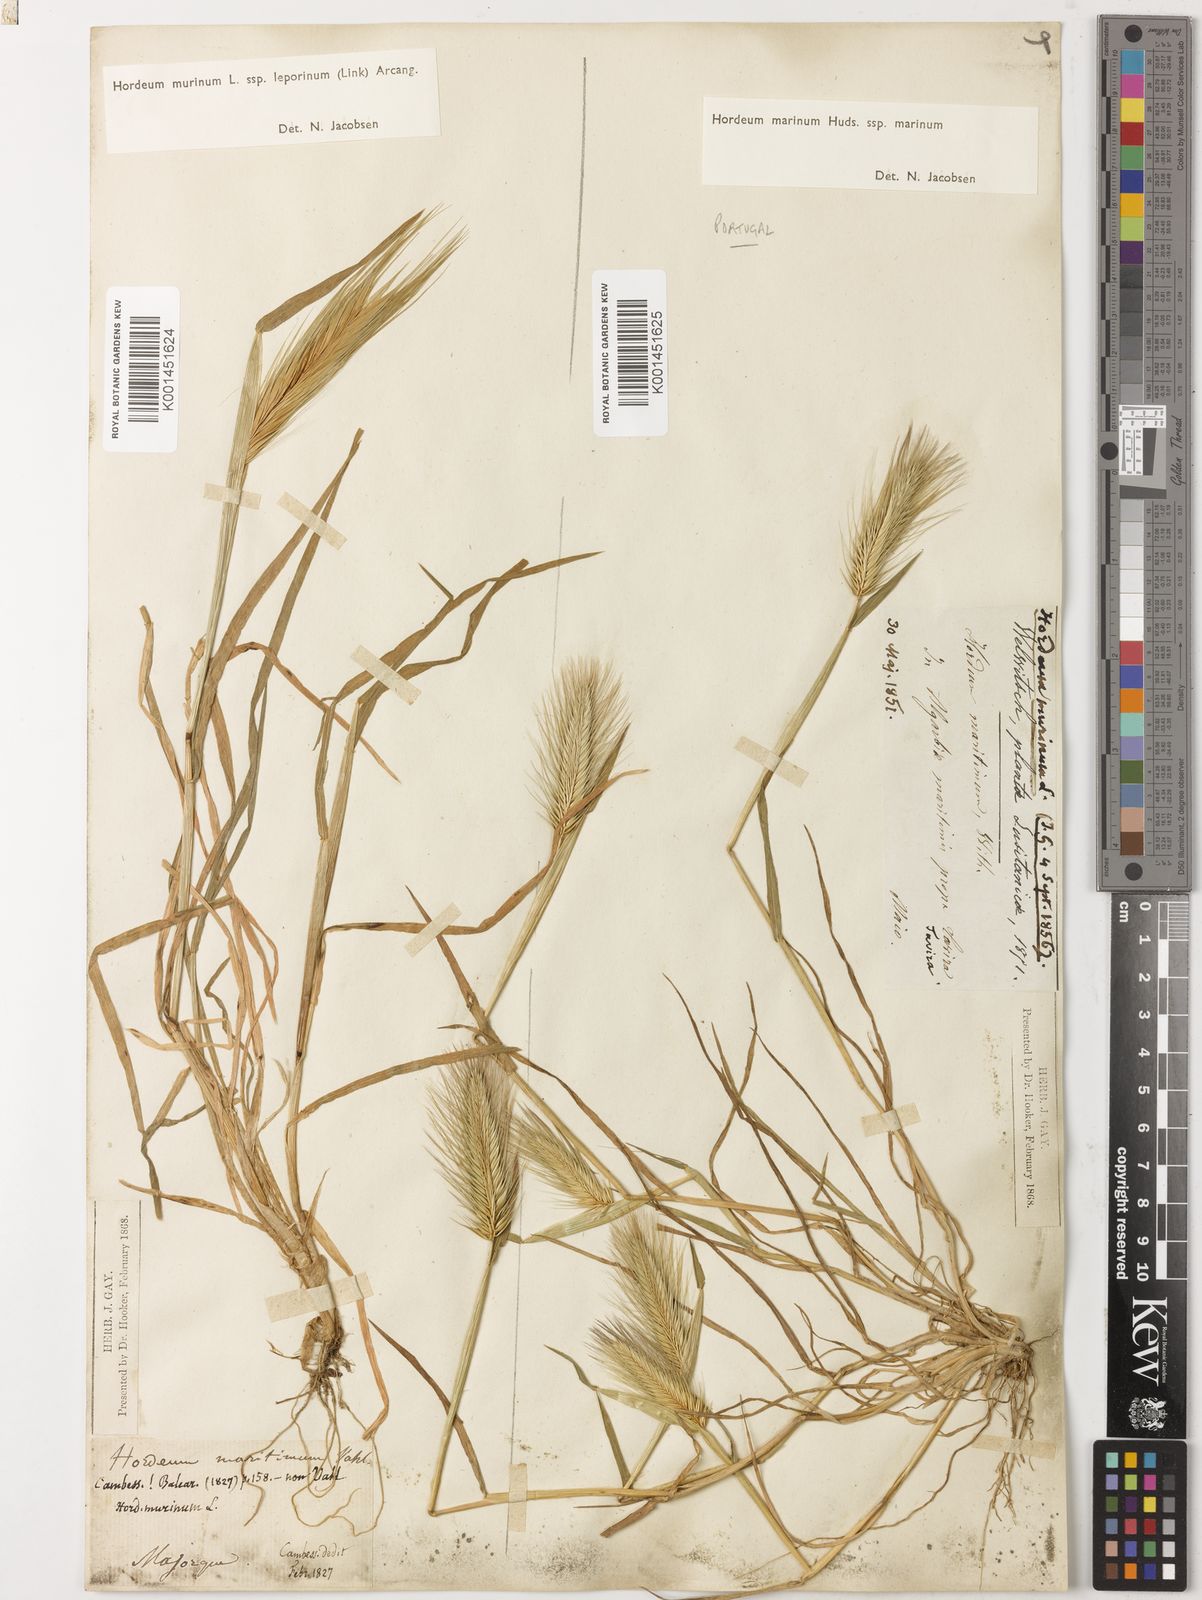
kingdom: Plantae
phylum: Tracheophyta
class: Liliopsida
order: Poales
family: Poaceae
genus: Hordeum
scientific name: Hordeum marinum
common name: Sea barley
